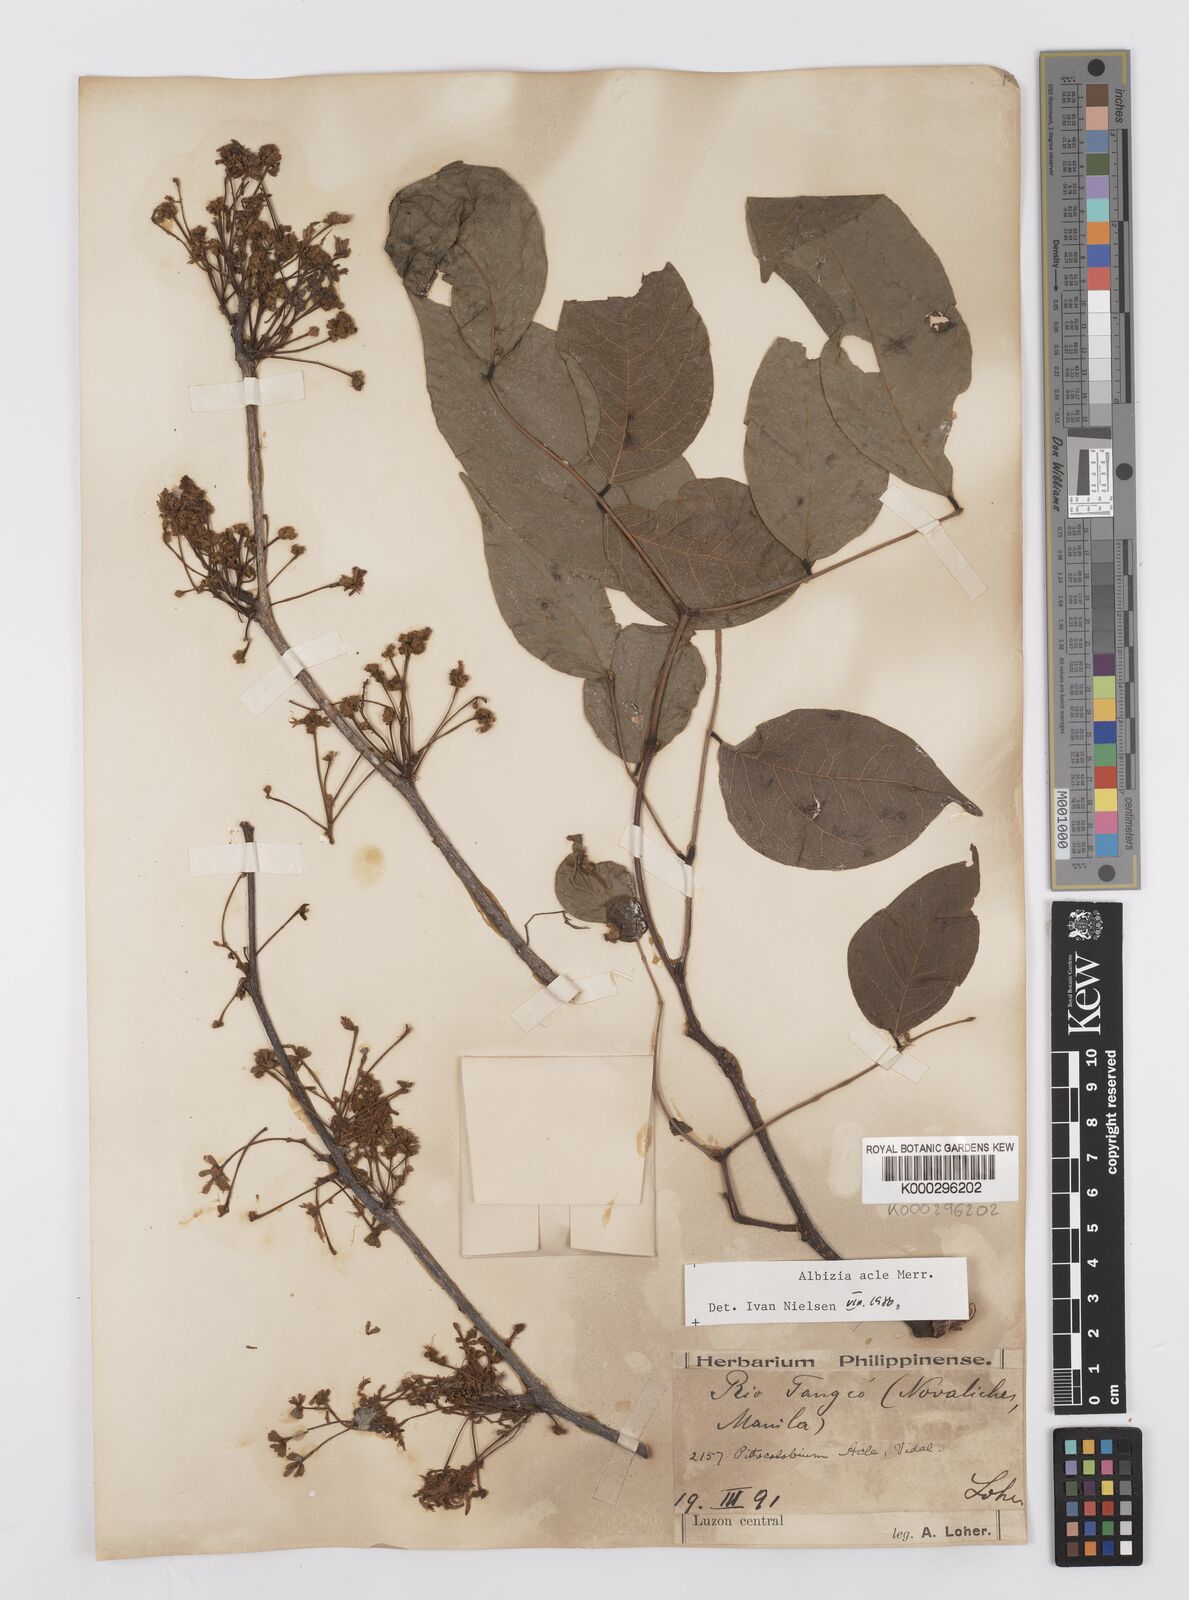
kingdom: Plantae
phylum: Tracheophyta
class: Magnoliopsida
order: Fabales
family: Fabaceae
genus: Albizia
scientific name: Albizia acle
